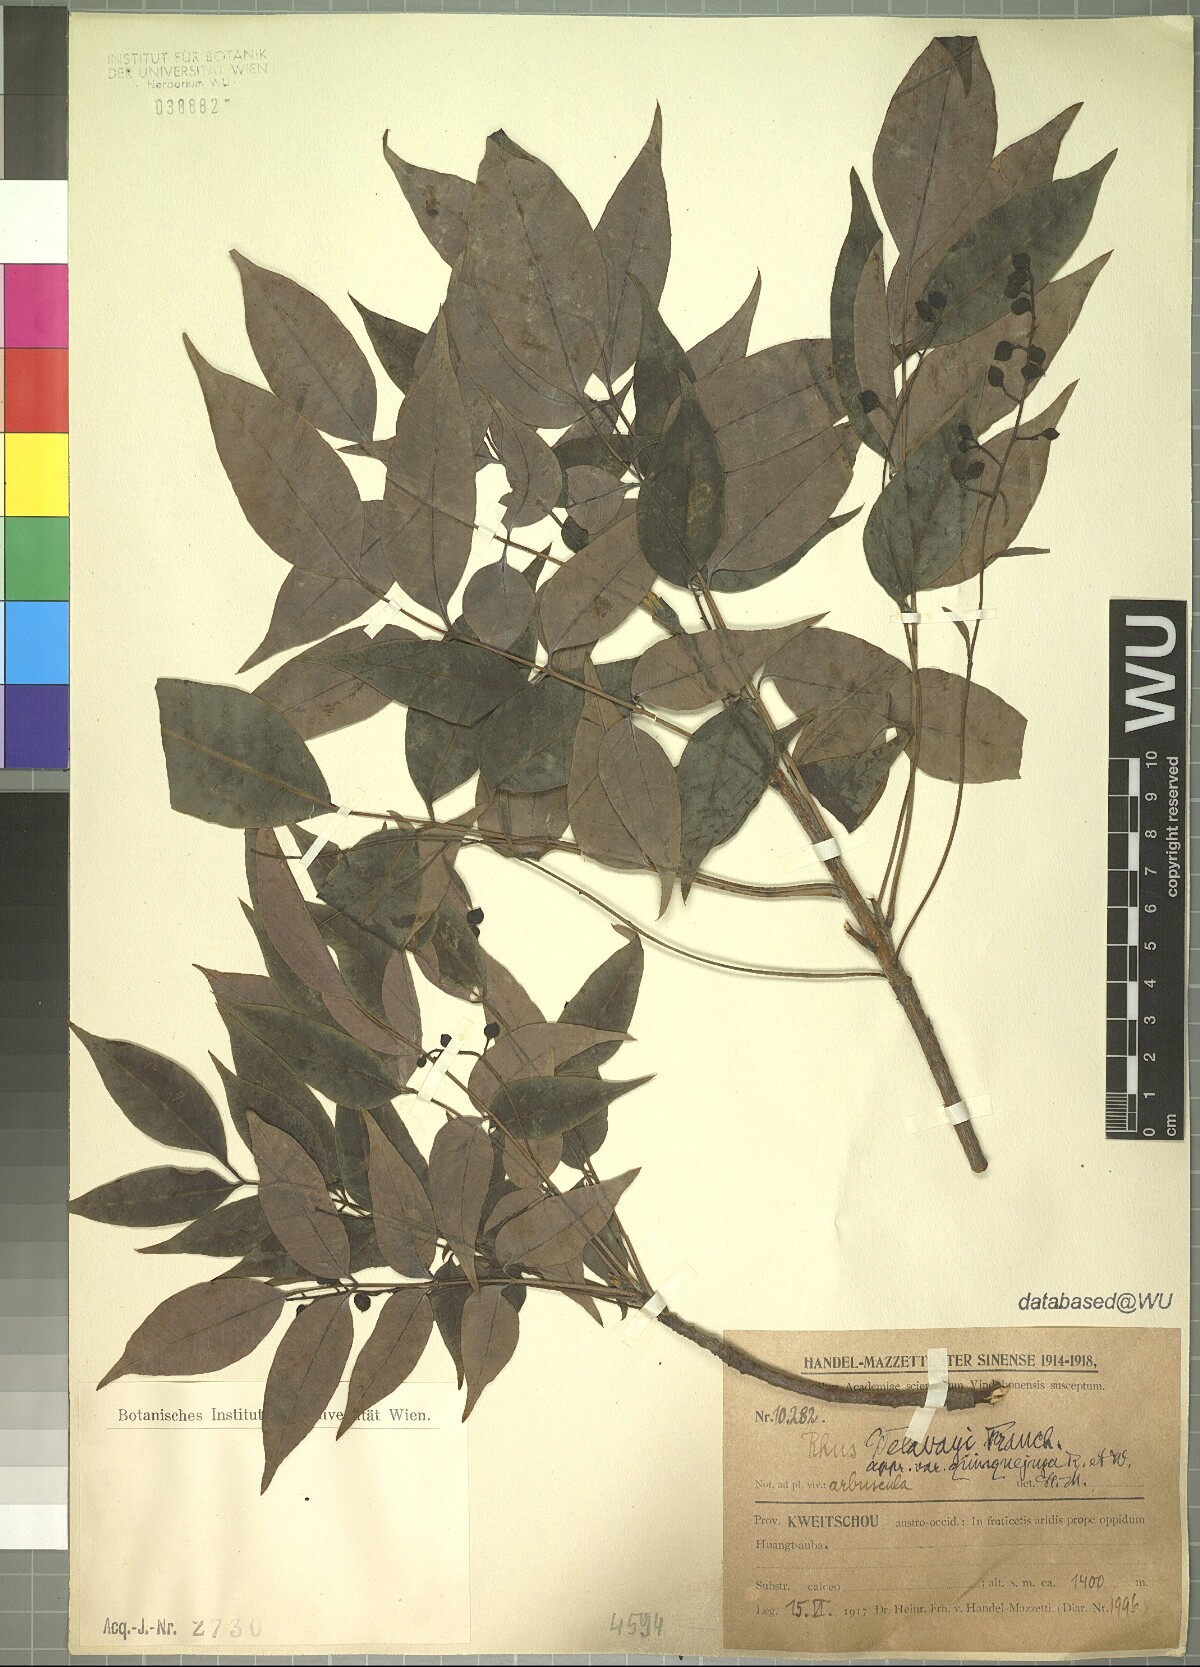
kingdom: Plantae
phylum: Tracheophyta
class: Magnoliopsida
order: Sapindales
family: Anacardiaceae
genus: Toxicodendron
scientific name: Toxicodendron grandiflorum
